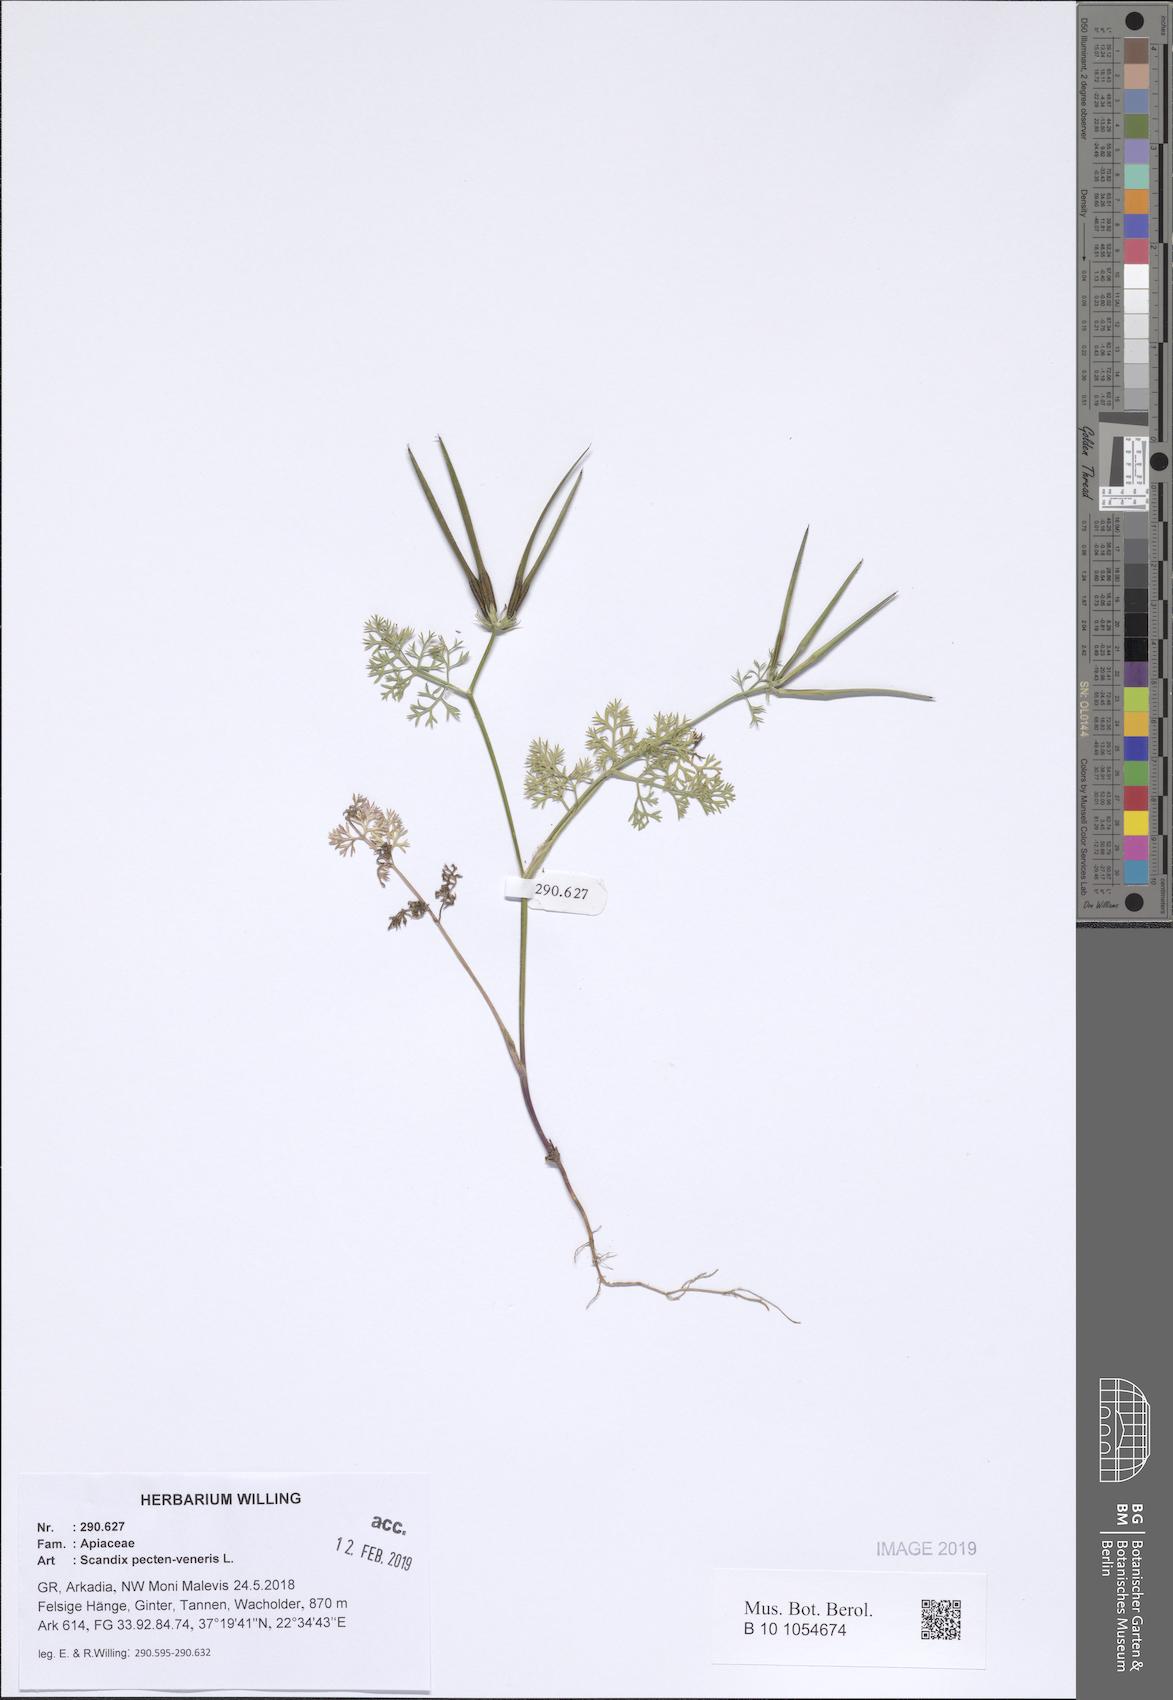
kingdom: Plantae
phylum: Tracheophyta
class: Magnoliopsida
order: Apiales
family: Apiaceae
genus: Scandix
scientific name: Scandix pecten-veneris
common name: Shepherd's-needle
